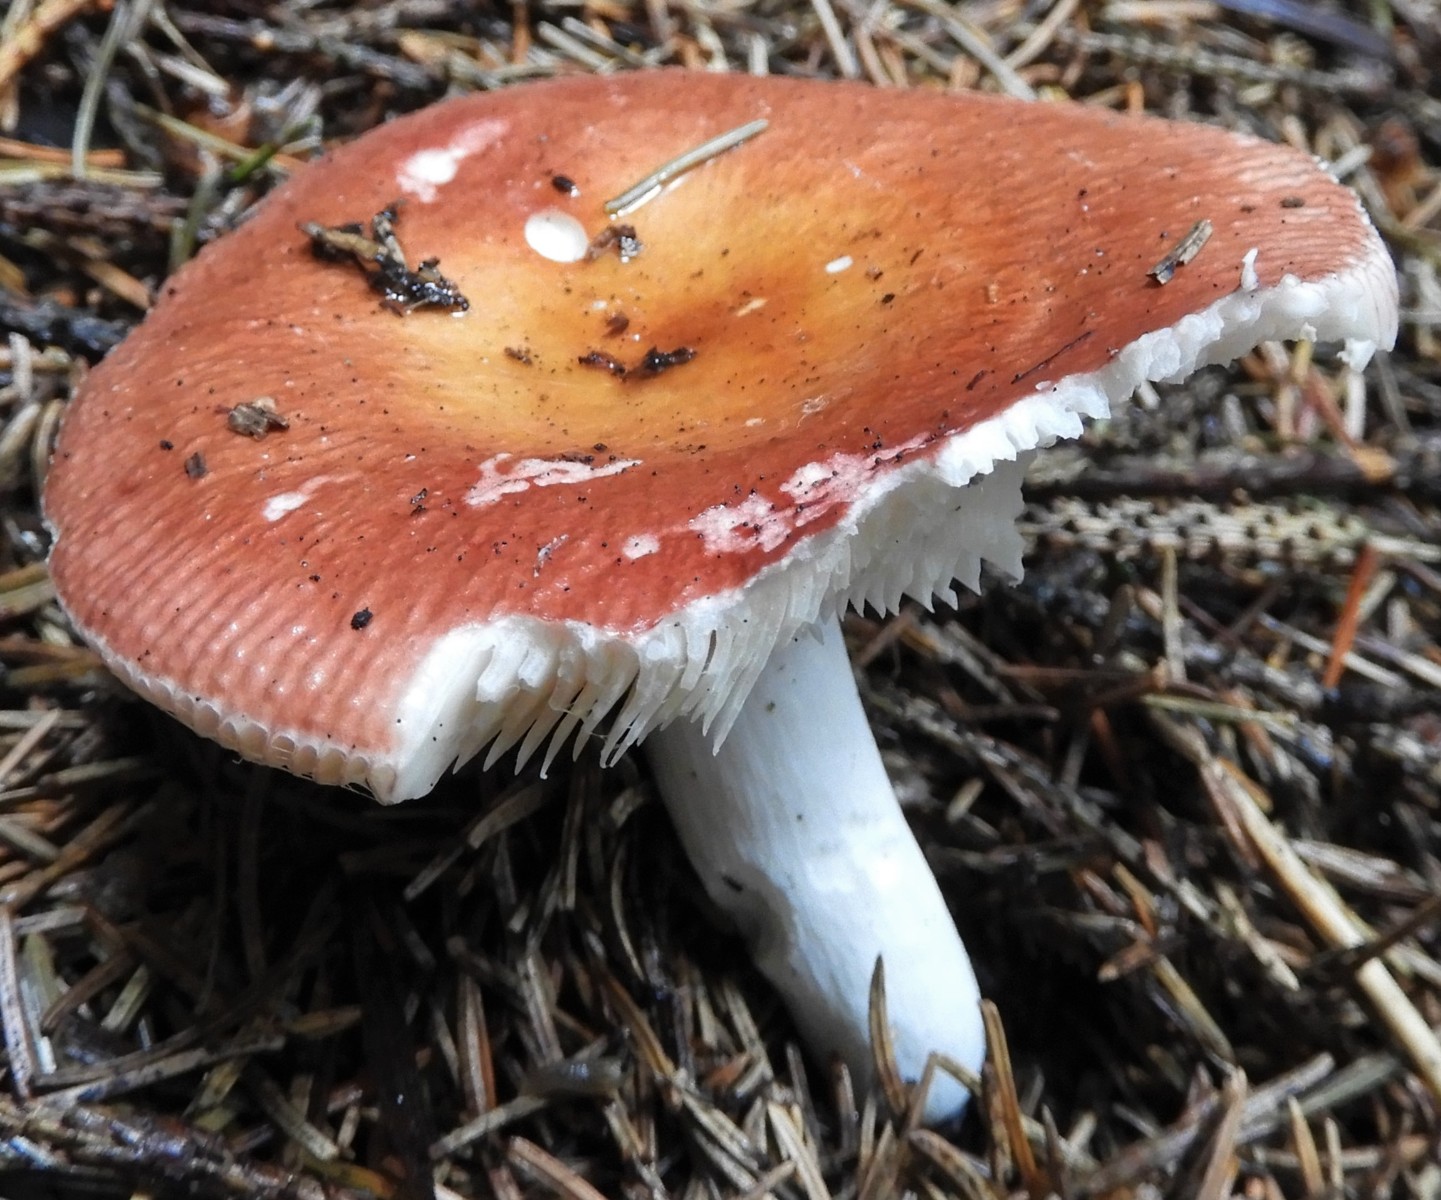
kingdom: Fungi
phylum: Basidiomycota
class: Agaricomycetes
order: Russulales
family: Russulaceae
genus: Russula
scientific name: Russula velenovskyi
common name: orangerød skørhat
